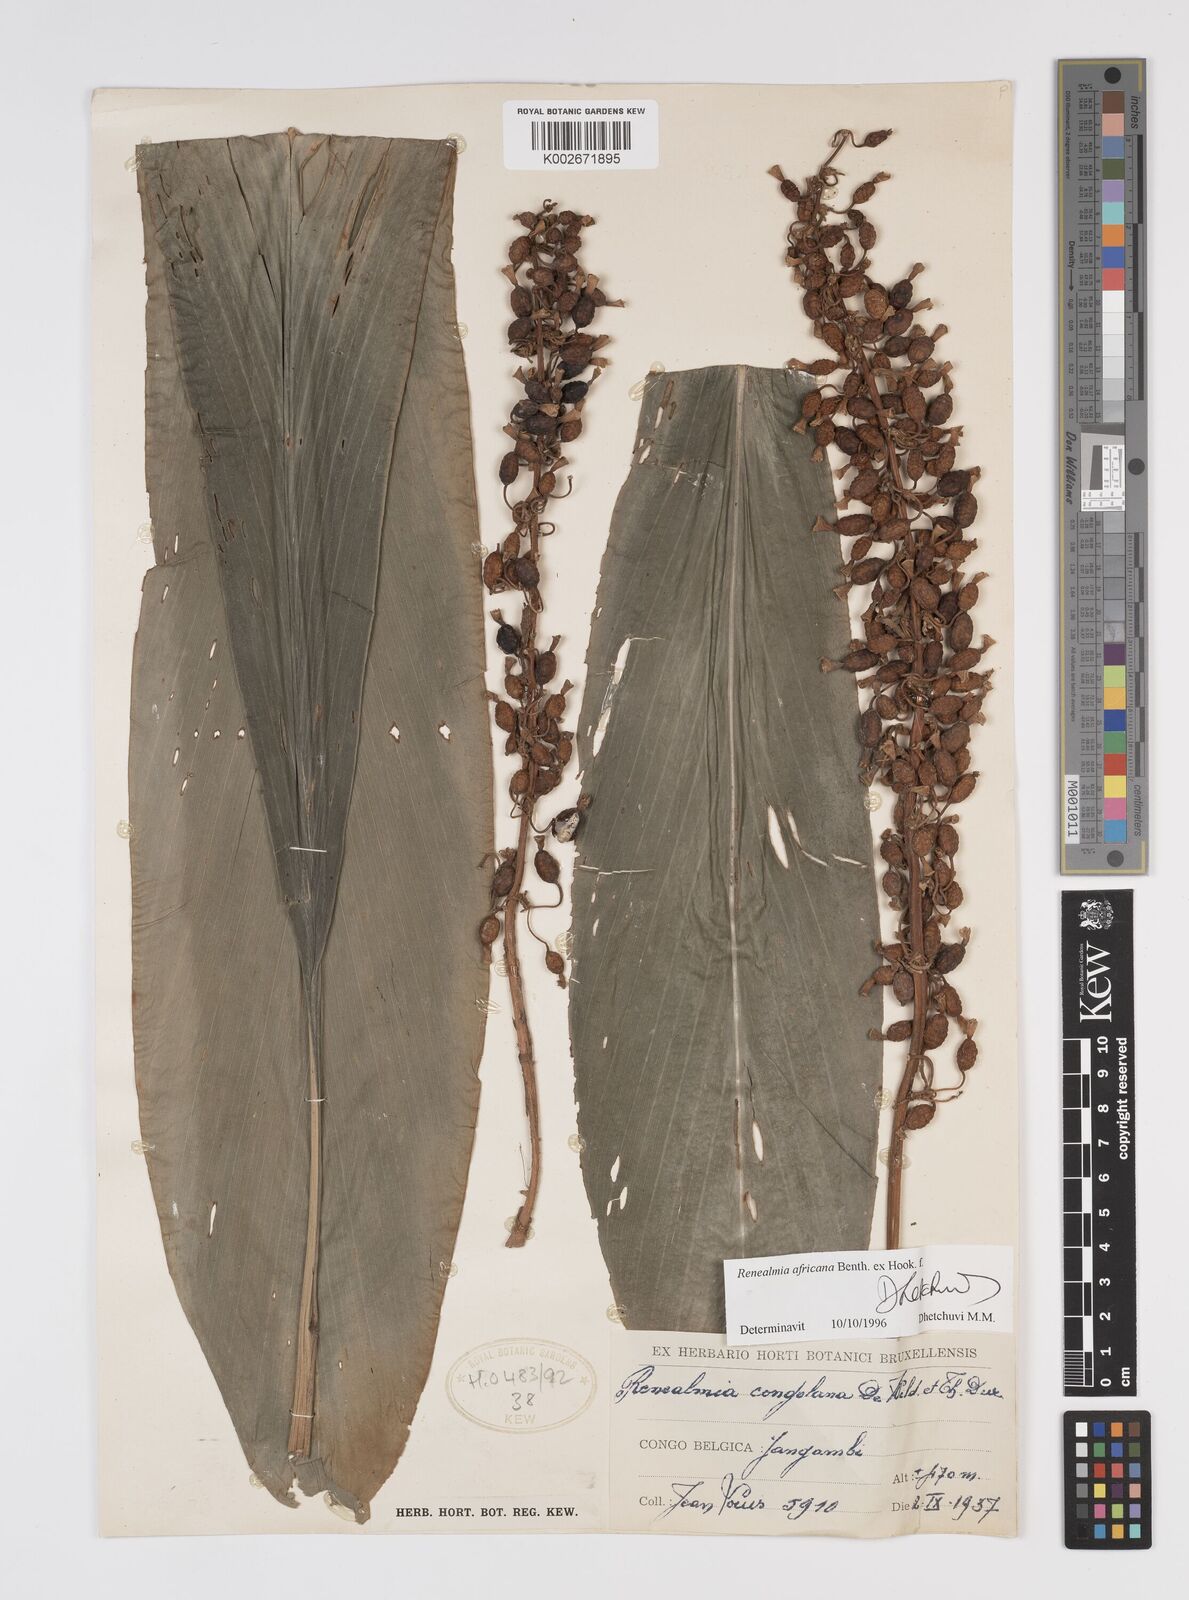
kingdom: Plantae
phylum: Tracheophyta
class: Liliopsida
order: Zingiberales
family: Zingiberaceae
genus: Renealmia
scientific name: Renealmia africana
